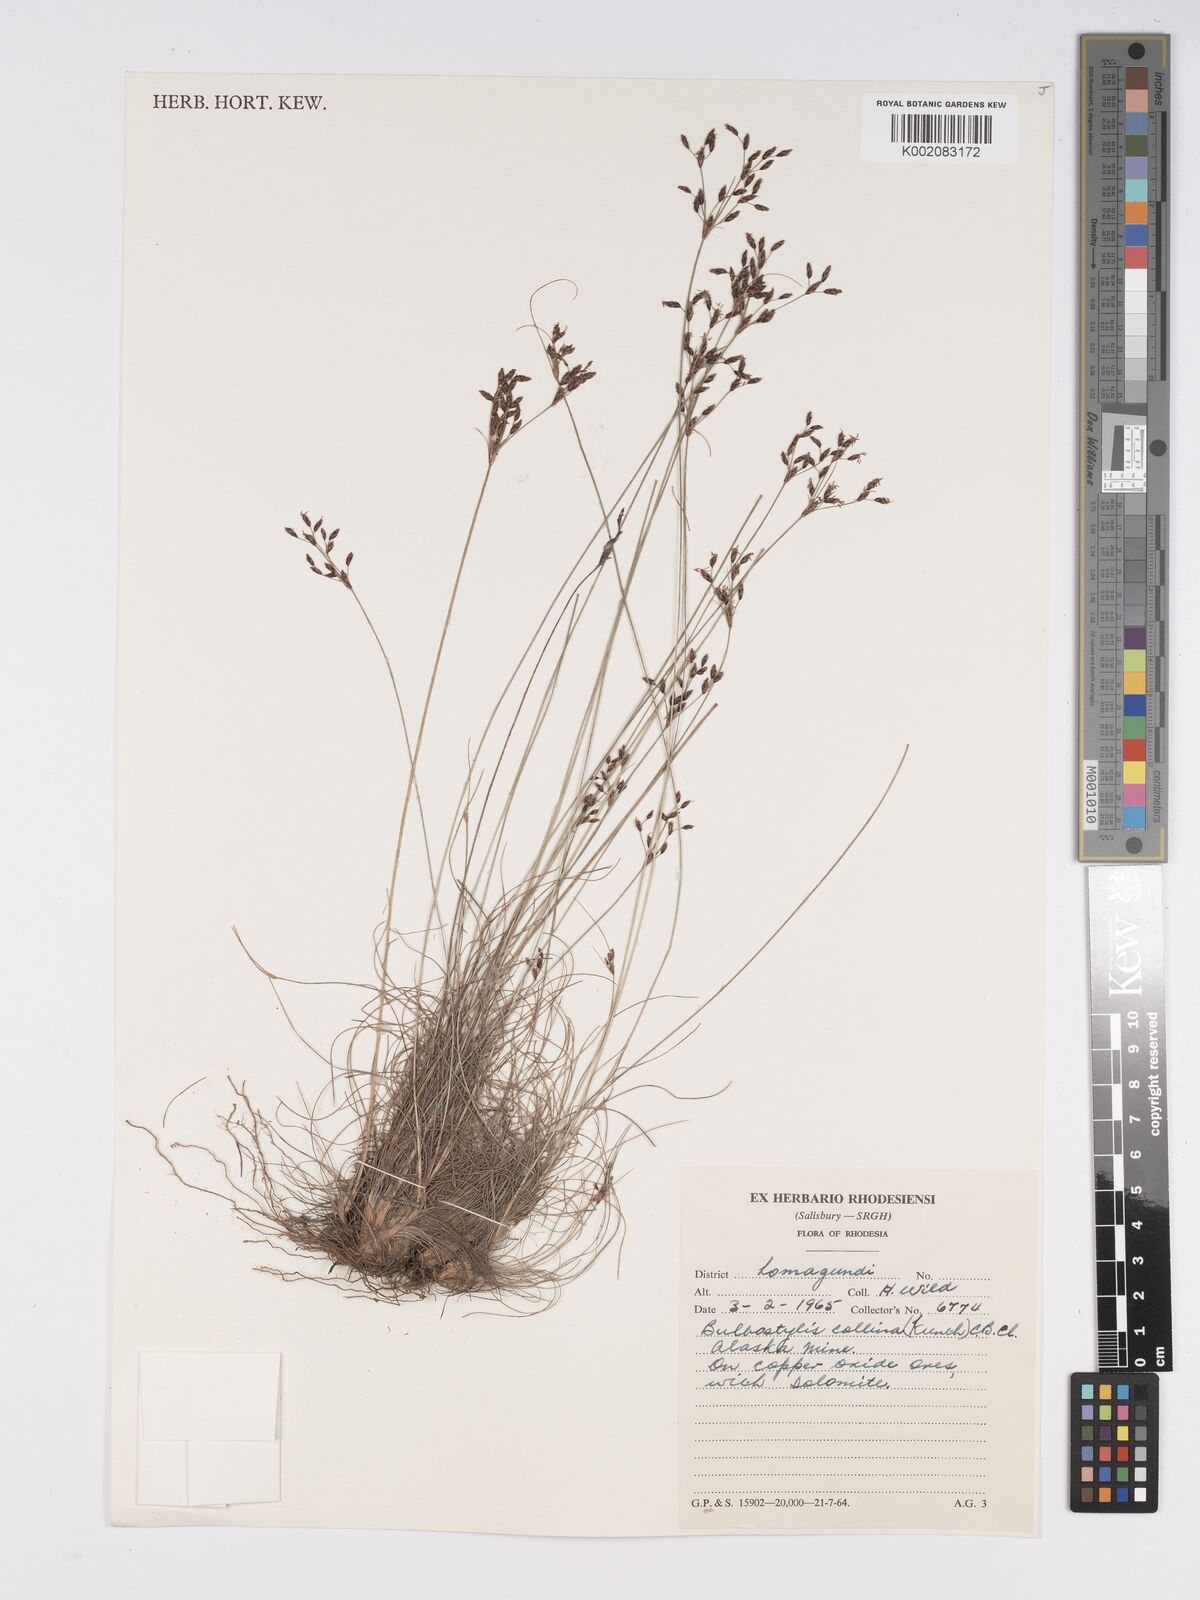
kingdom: Plantae
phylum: Tracheophyta
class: Liliopsida
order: Poales
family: Cyperaceae
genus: Bulbostylis
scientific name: Bulbostylis contexta
